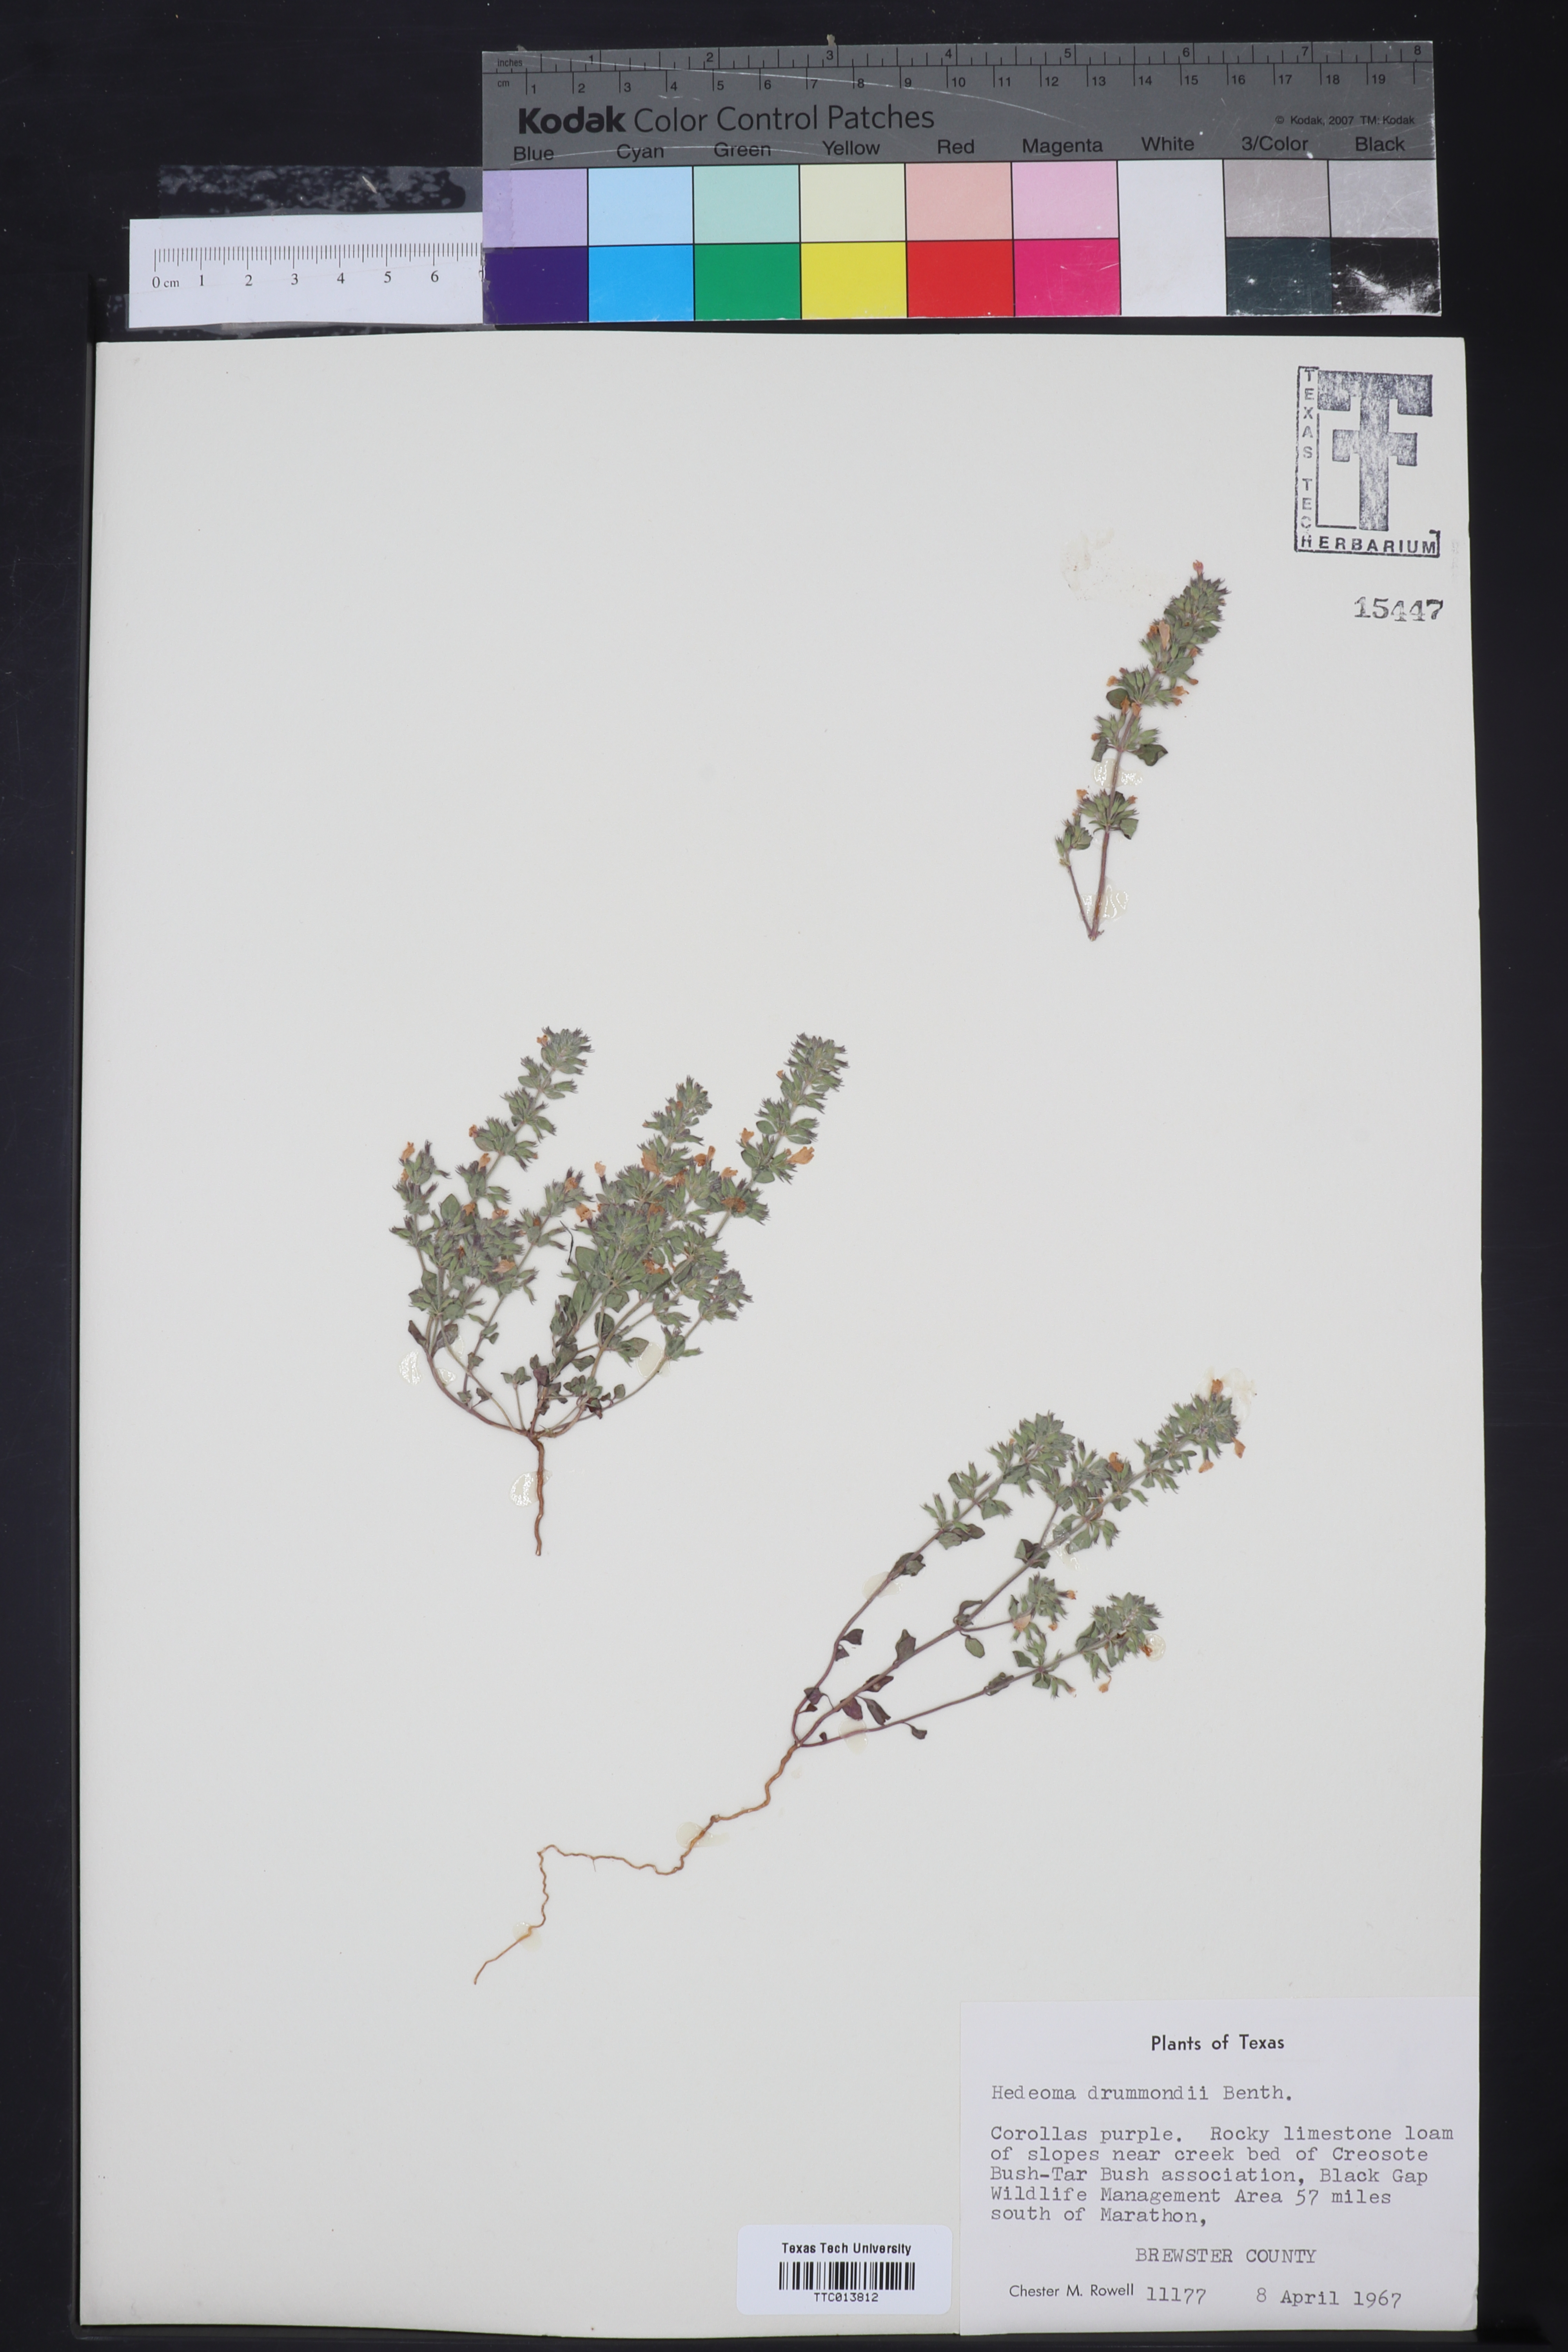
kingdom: Plantae
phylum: Tracheophyta
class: Magnoliopsida
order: Lamiales
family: Lamiaceae
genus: Hedeoma
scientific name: Hedeoma drummondii
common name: New mexico pennyroyal
